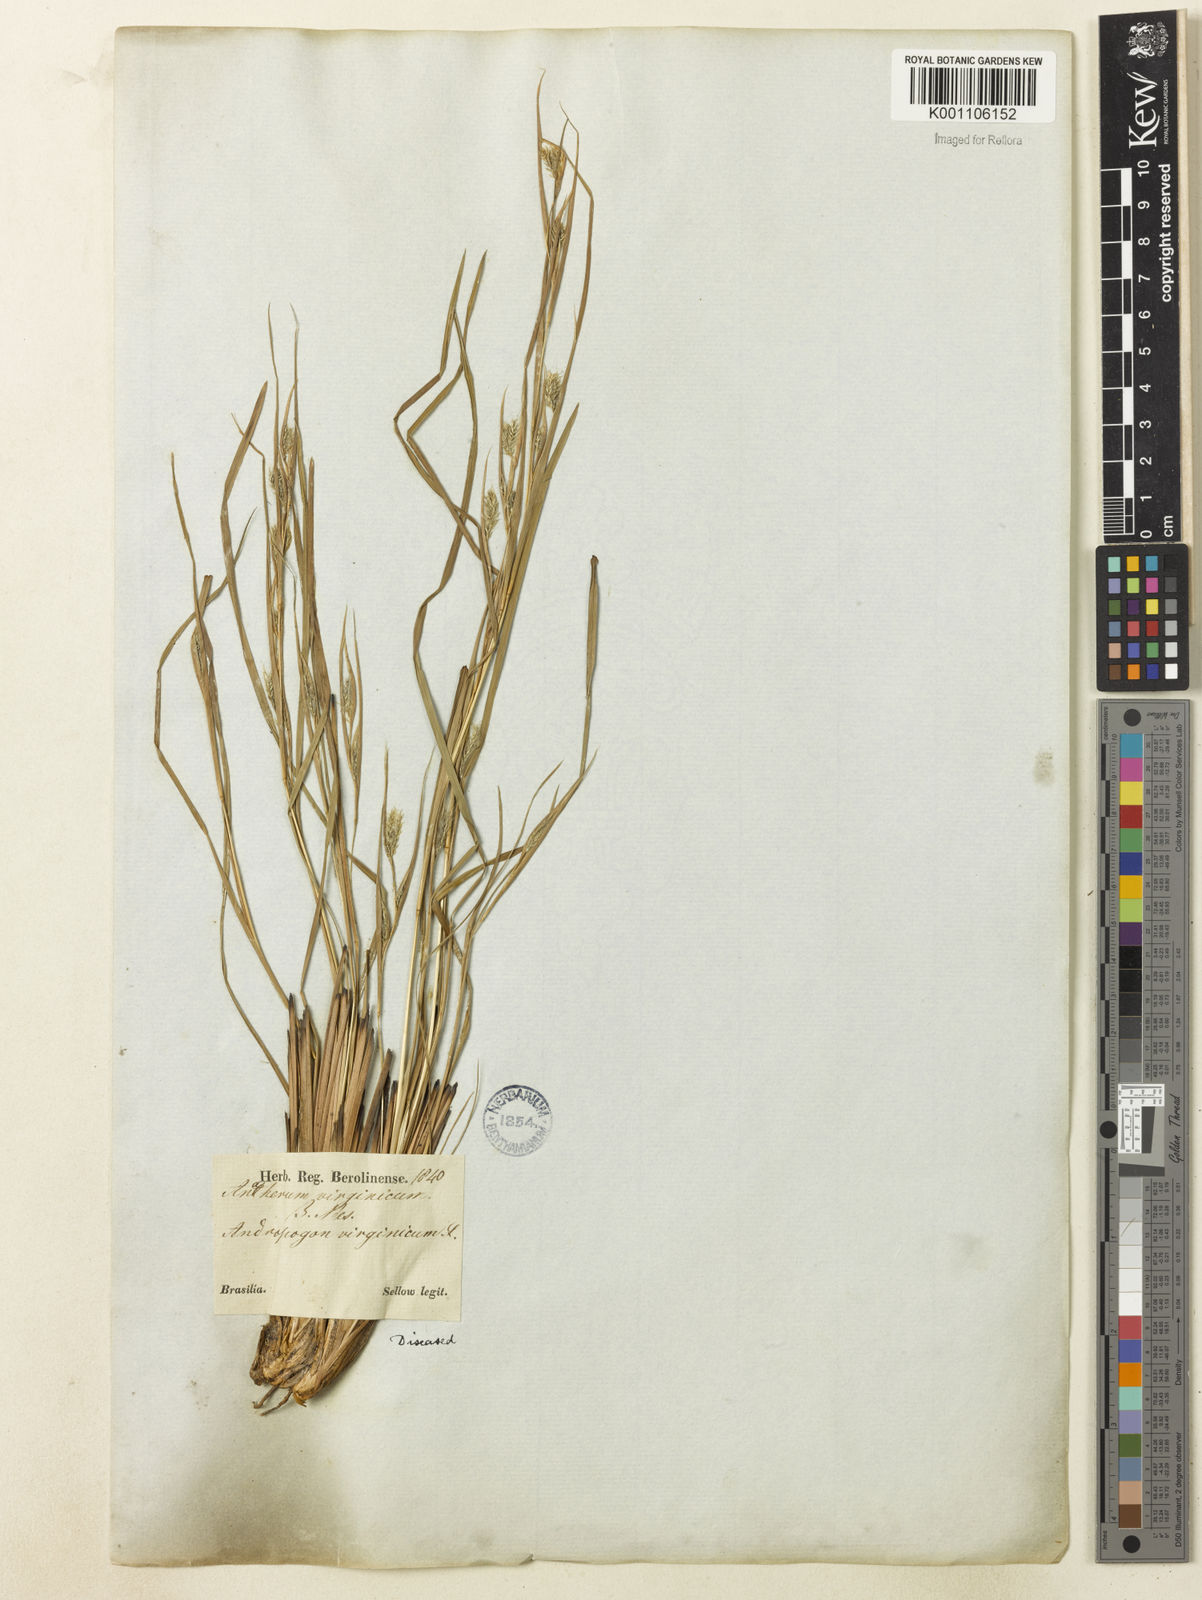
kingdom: Plantae
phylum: Tracheophyta
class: Liliopsida
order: Poales
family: Poaceae
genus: Andropogon
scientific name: Andropogon leucostachyus
